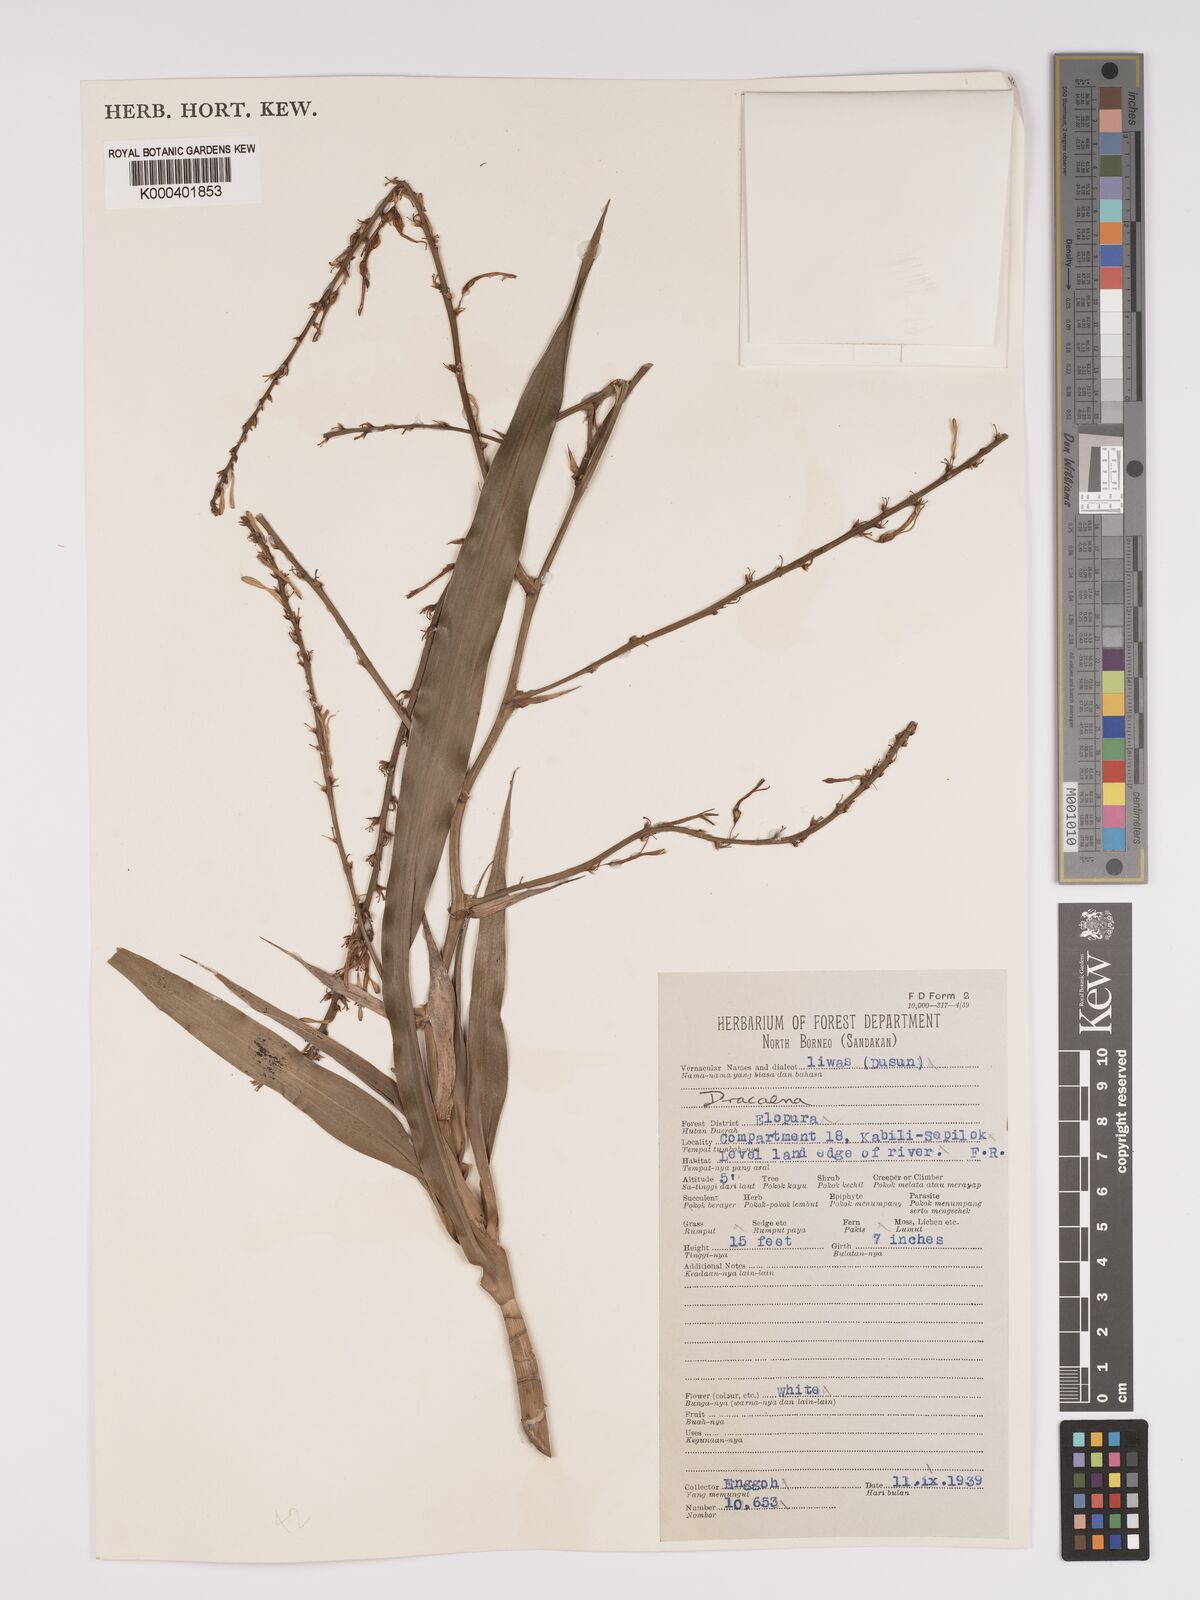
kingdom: Plantae
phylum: Tracheophyta
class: Liliopsida
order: Asparagales
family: Asparagaceae
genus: Dracaena
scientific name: Dracaena
